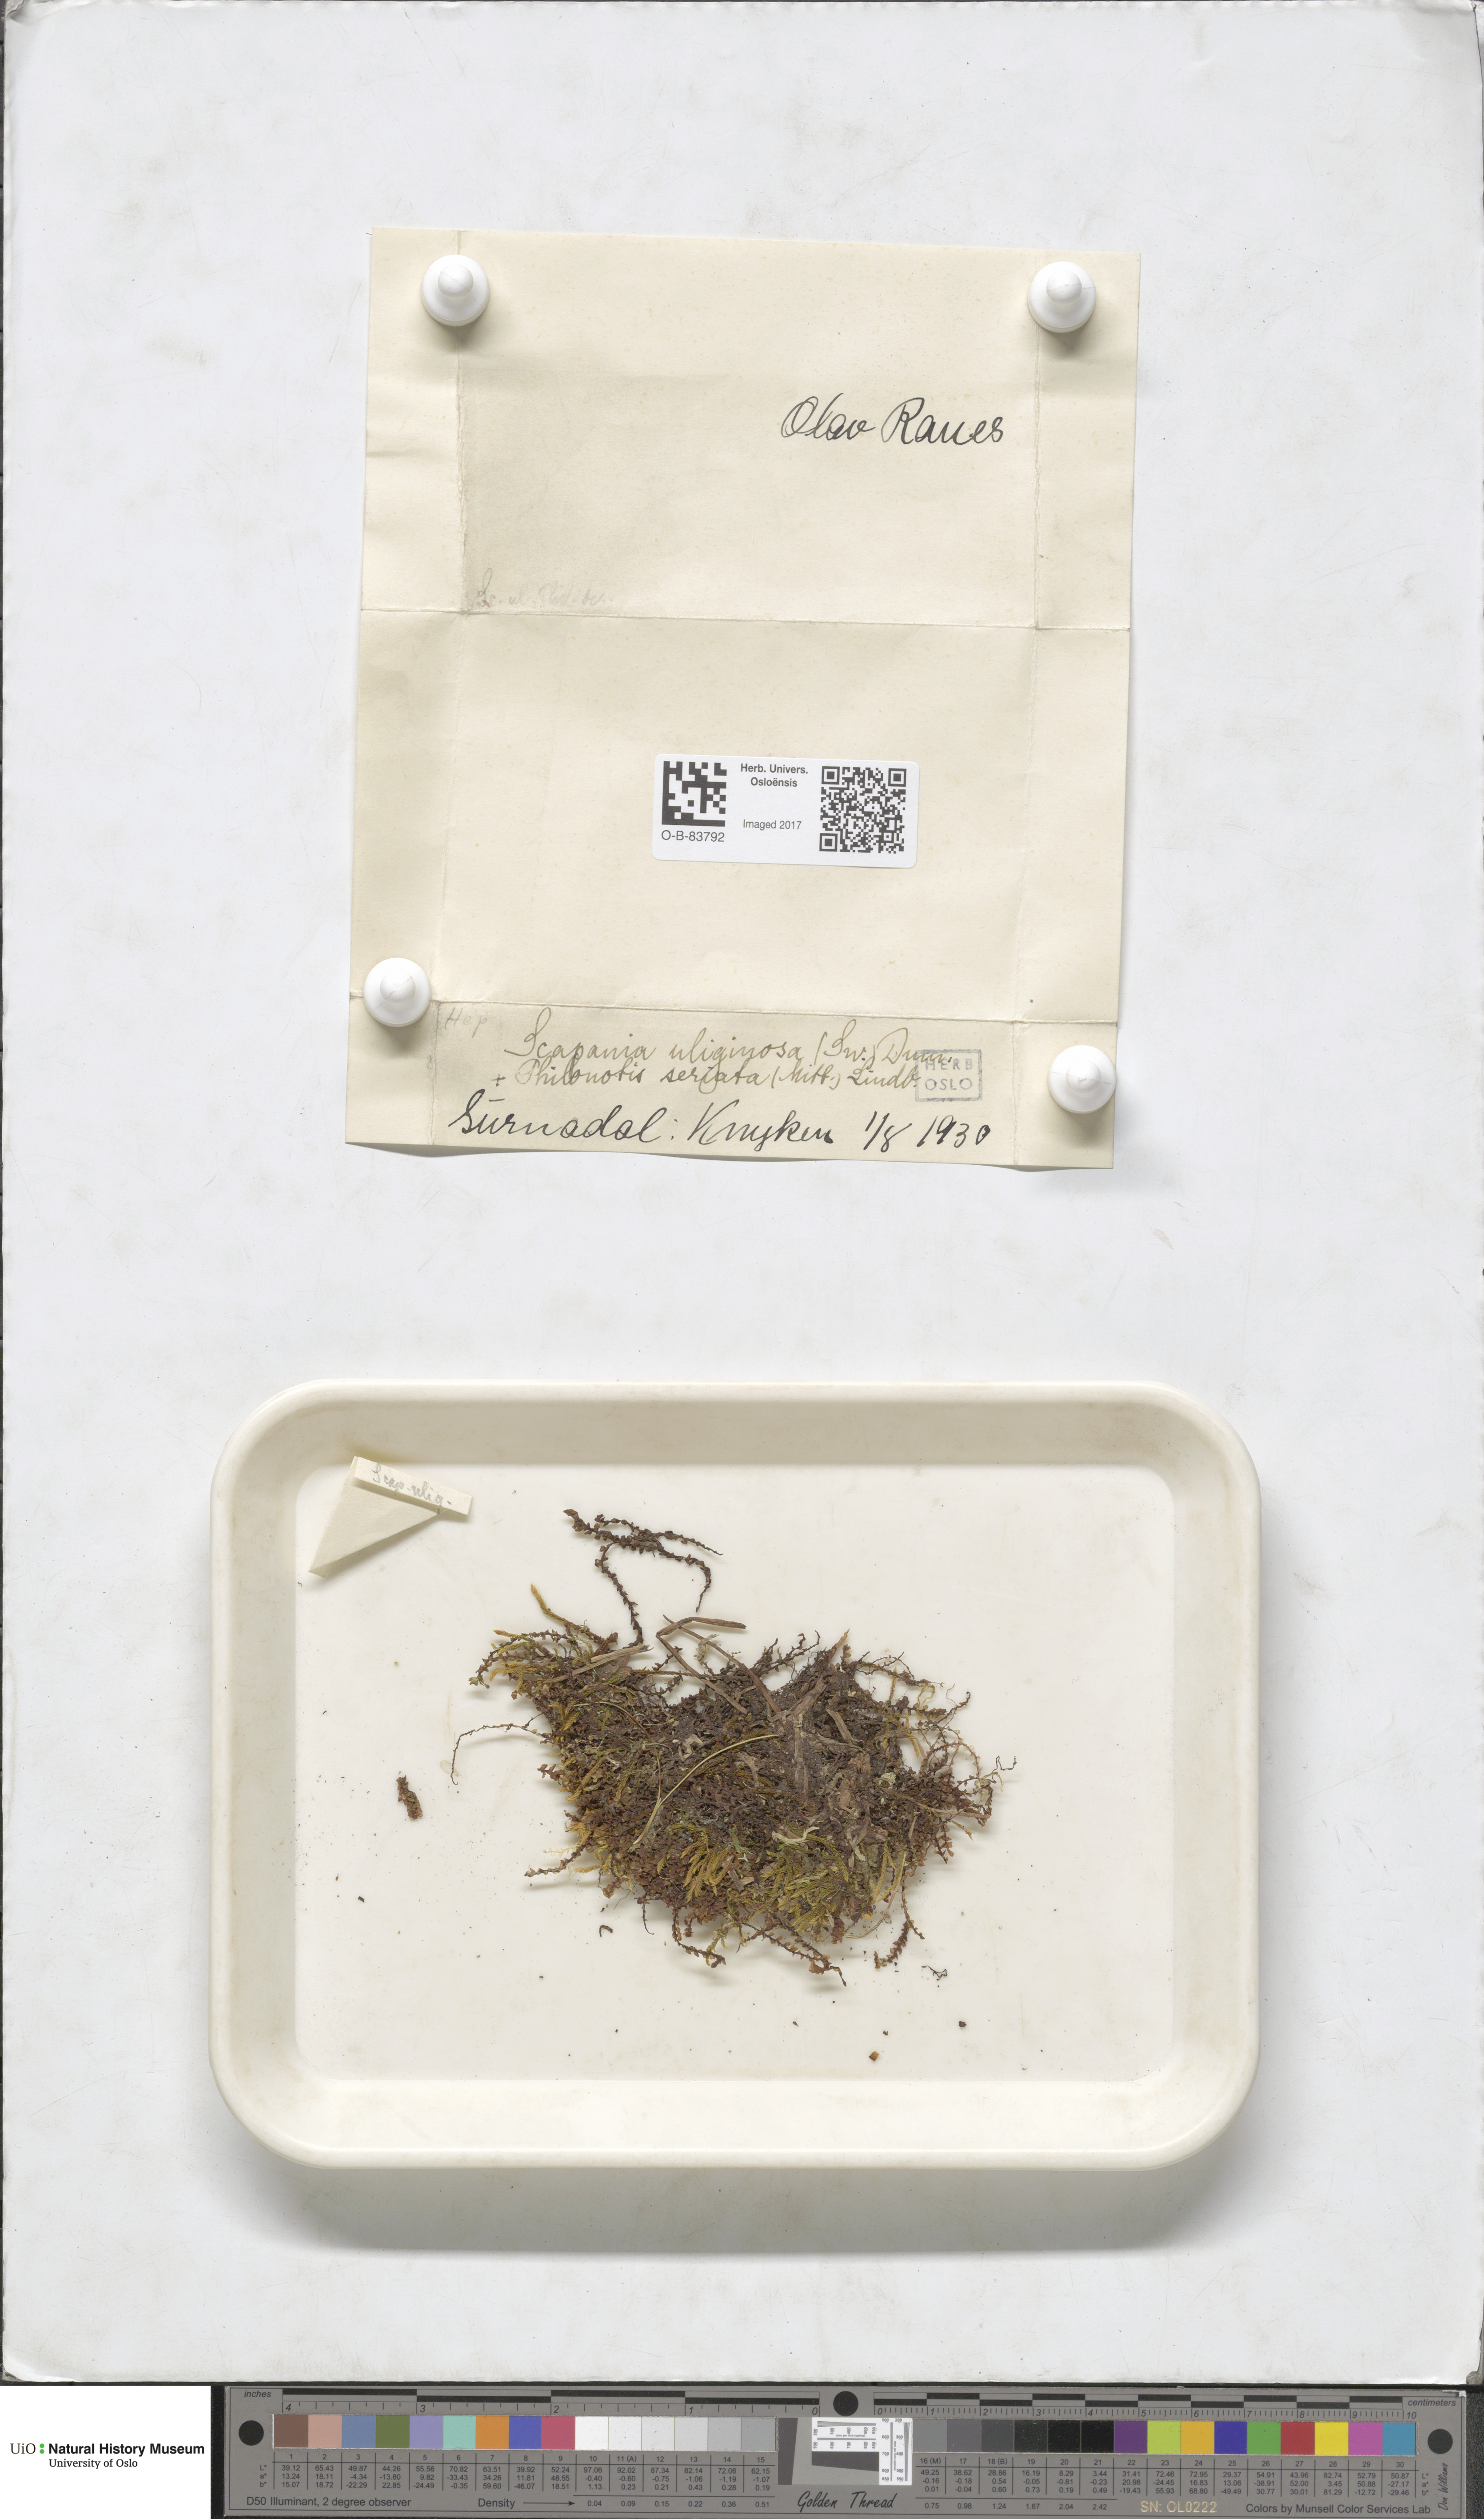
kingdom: Plantae
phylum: Marchantiophyta
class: Jungermanniopsida
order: Jungermanniales
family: Scapaniaceae
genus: Scapania
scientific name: Scapania uliginosa
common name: Marsh earwort
